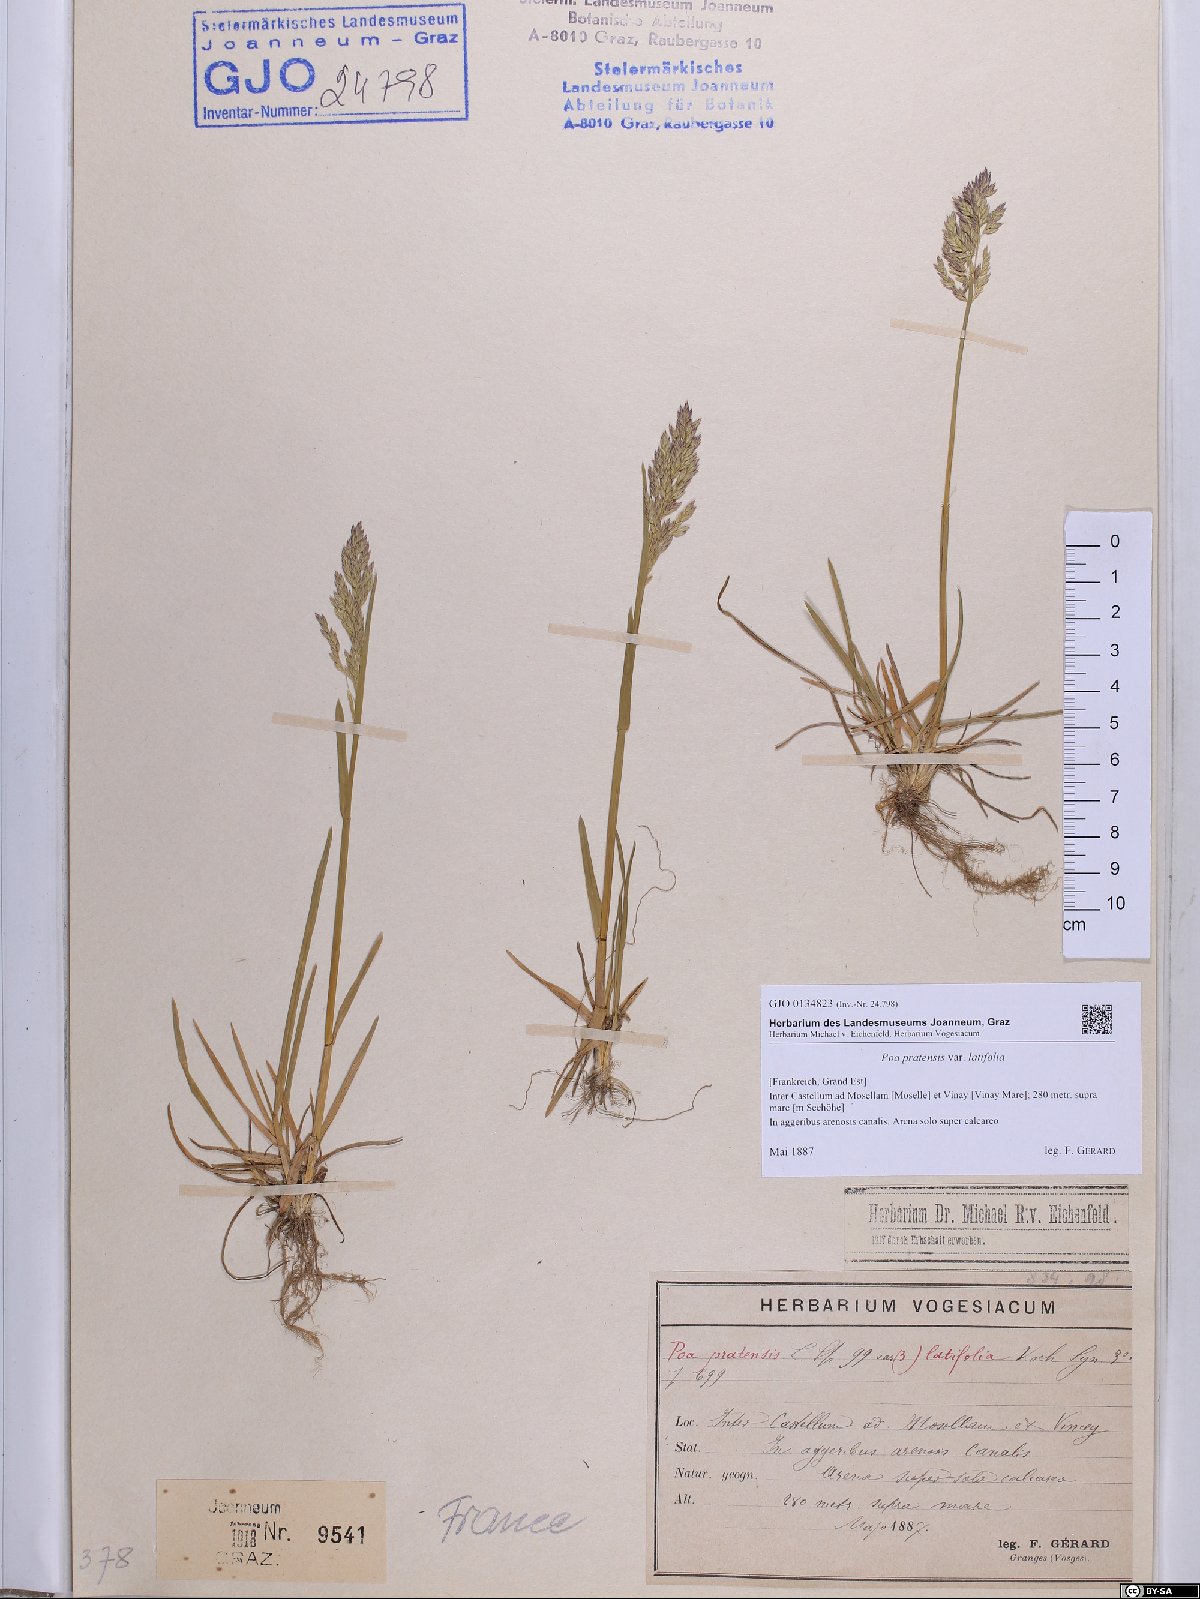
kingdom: Plantae
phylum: Tracheophyta
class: Liliopsida
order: Poales
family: Poaceae
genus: Poa
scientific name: Poa humilis
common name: Spreading meadow-grass
